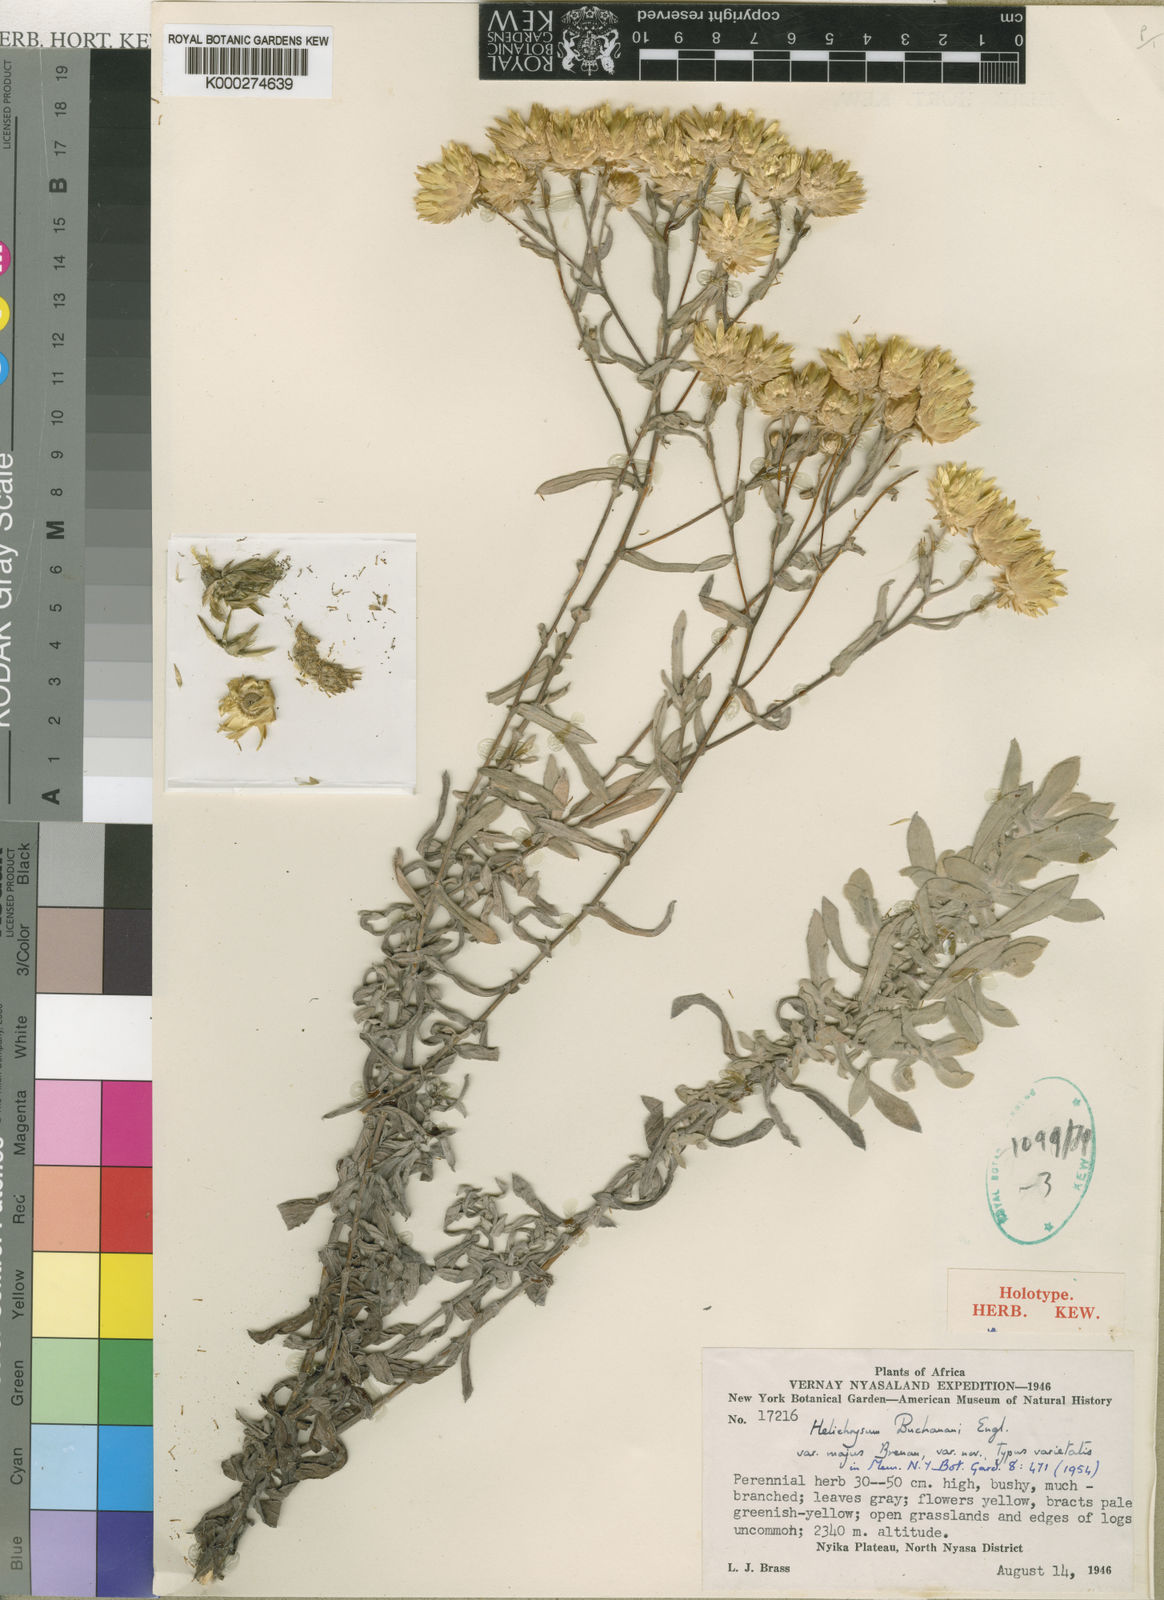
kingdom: Plantae
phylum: Tracheophyta
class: Magnoliopsida
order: Asterales
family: Asteraceae
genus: Helichrysum
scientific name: Helichrysum buchananii
